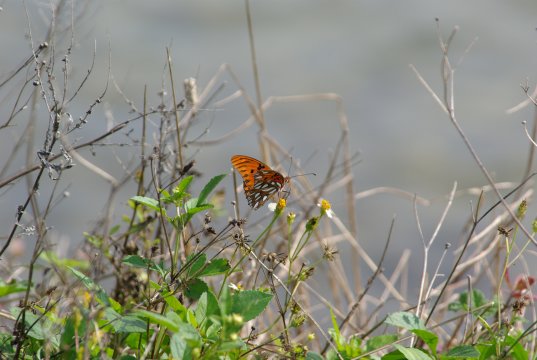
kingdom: Animalia
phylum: Arthropoda
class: Insecta
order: Lepidoptera
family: Nymphalidae
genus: Dione
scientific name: Dione vanillae
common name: Gulf Fritillary
